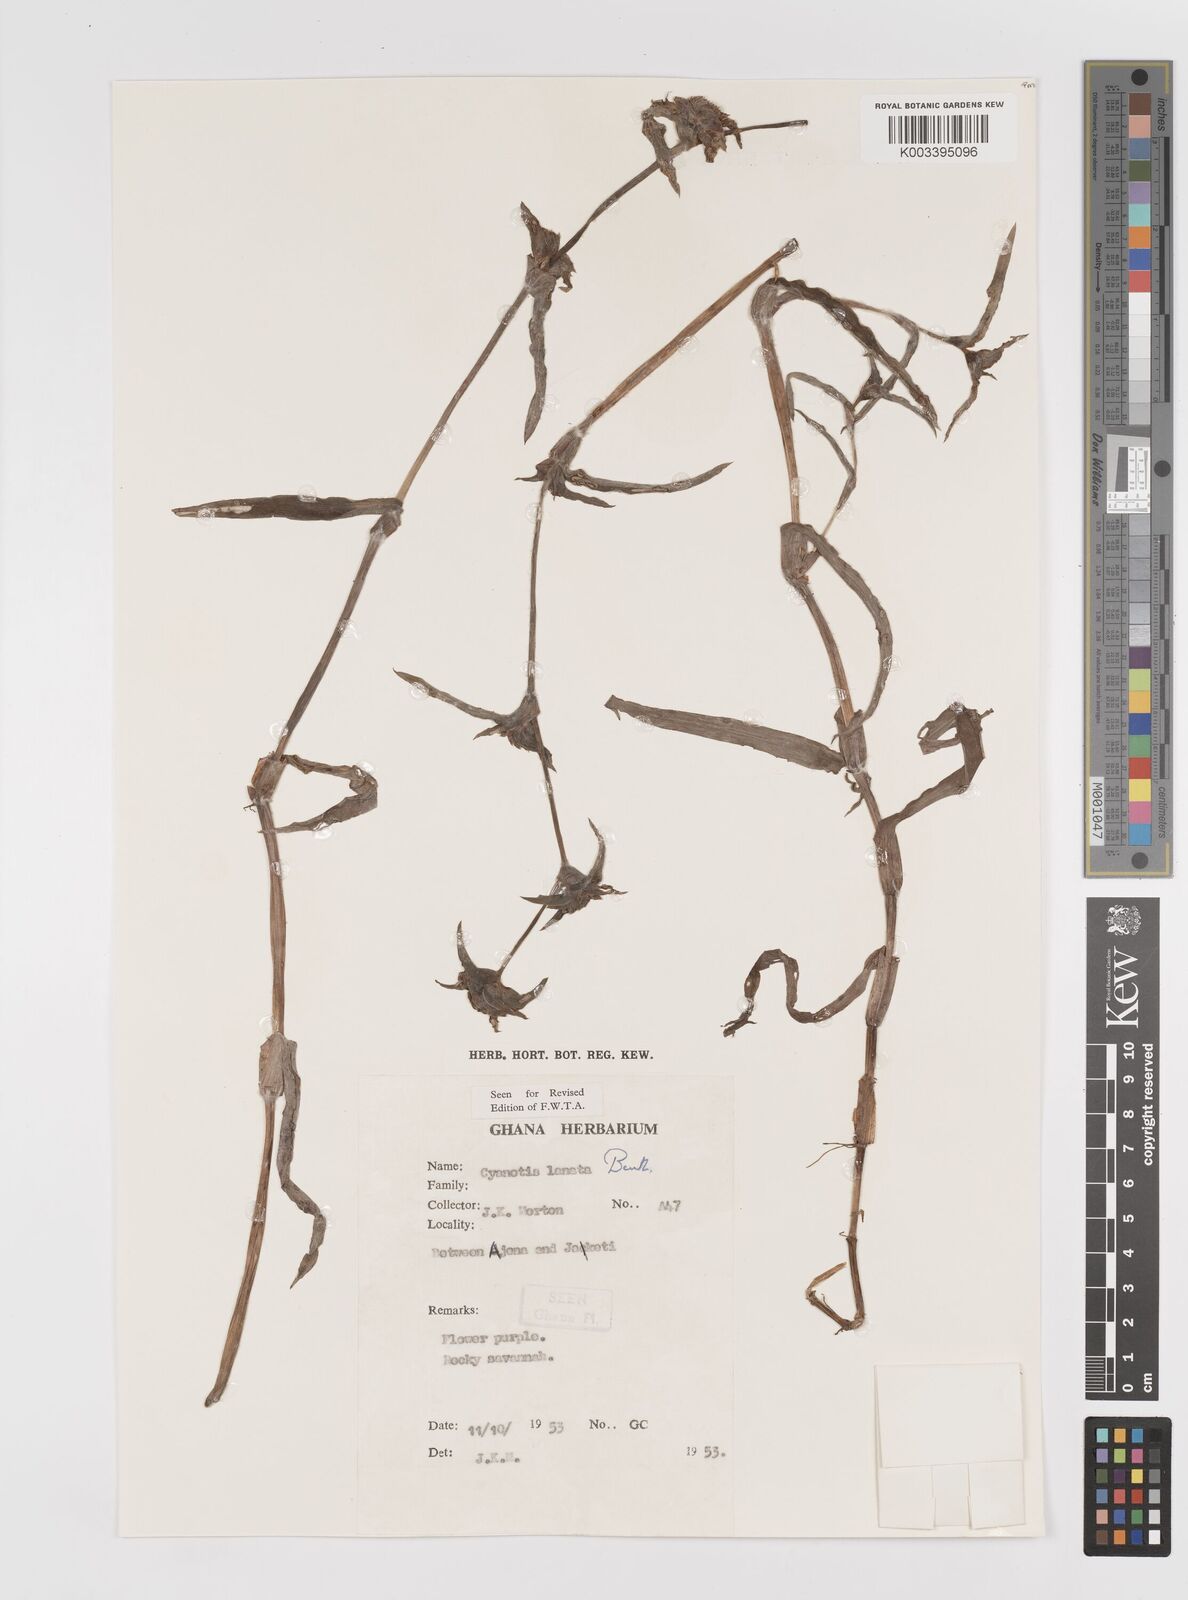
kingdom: Plantae
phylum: Tracheophyta
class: Liliopsida
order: Commelinales
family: Commelinaceae
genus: Cyanotis
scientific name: Cyanotis lanata
